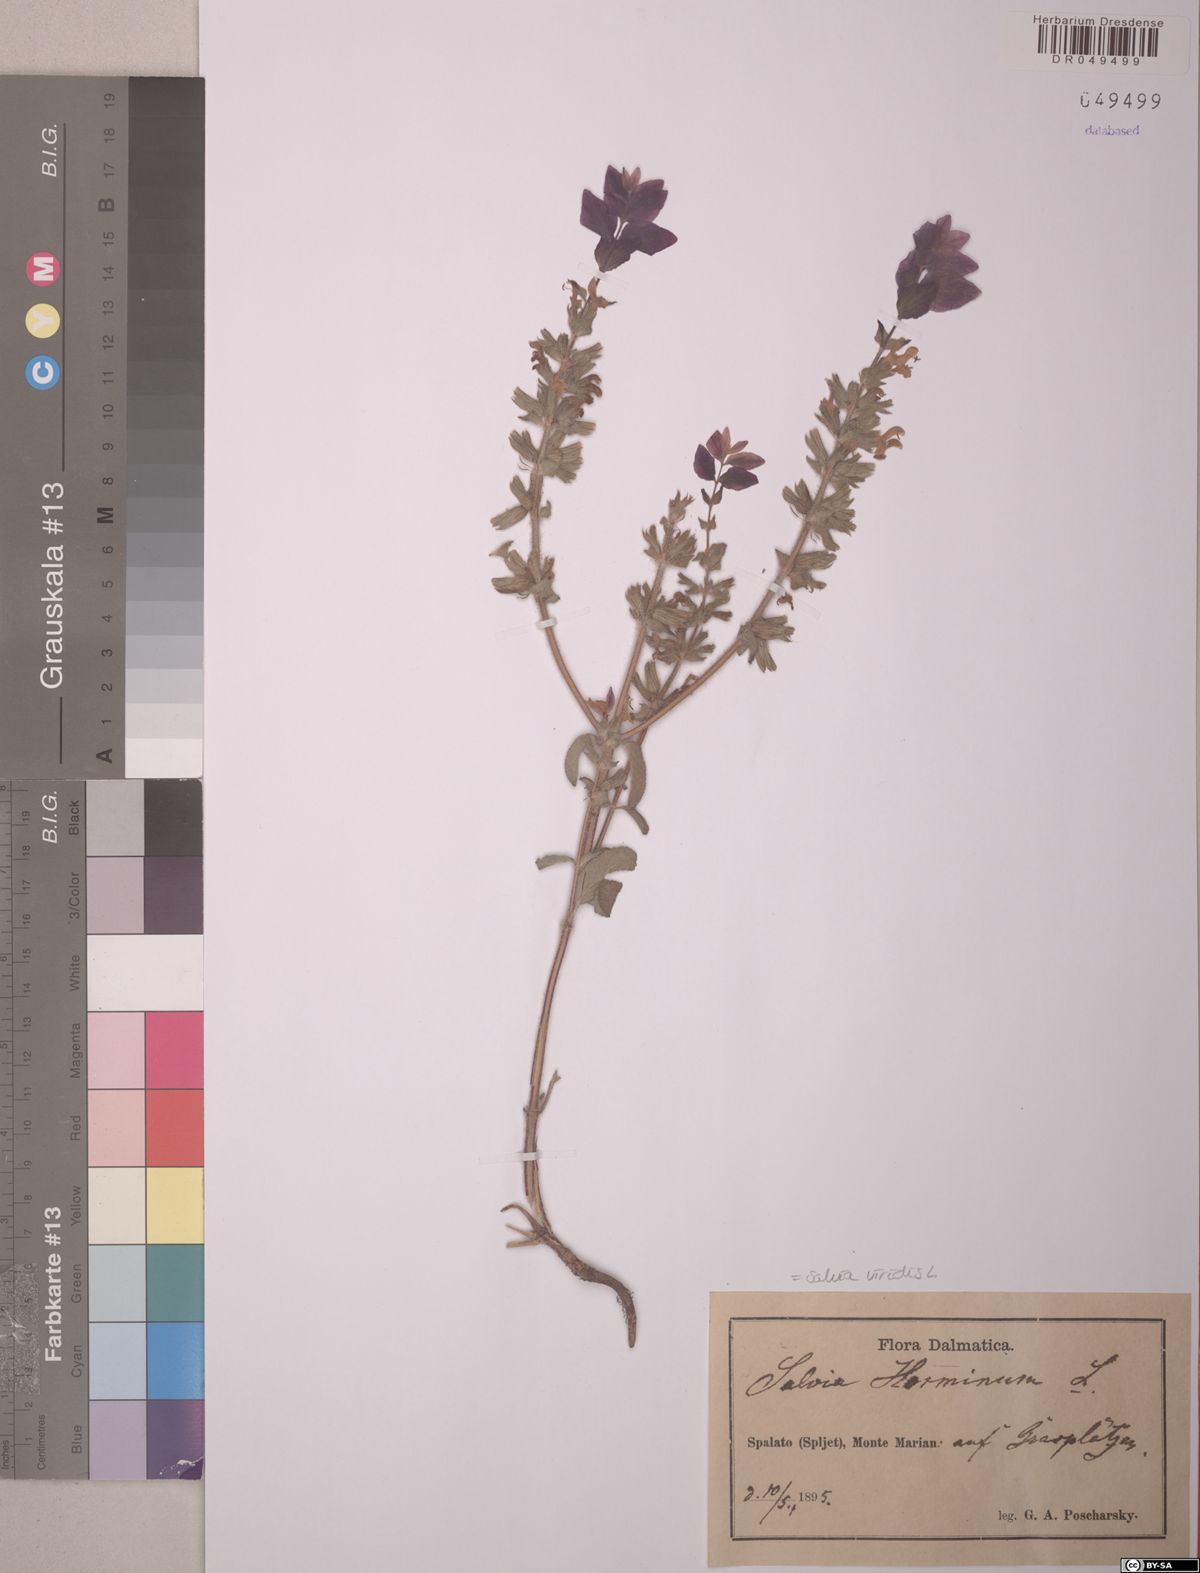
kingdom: Plantae
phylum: Tracheophyta
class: Magnoliopsida
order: Lamiales
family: Lamiaceae
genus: Salvia
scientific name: Salvia viridis
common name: Annual clary
